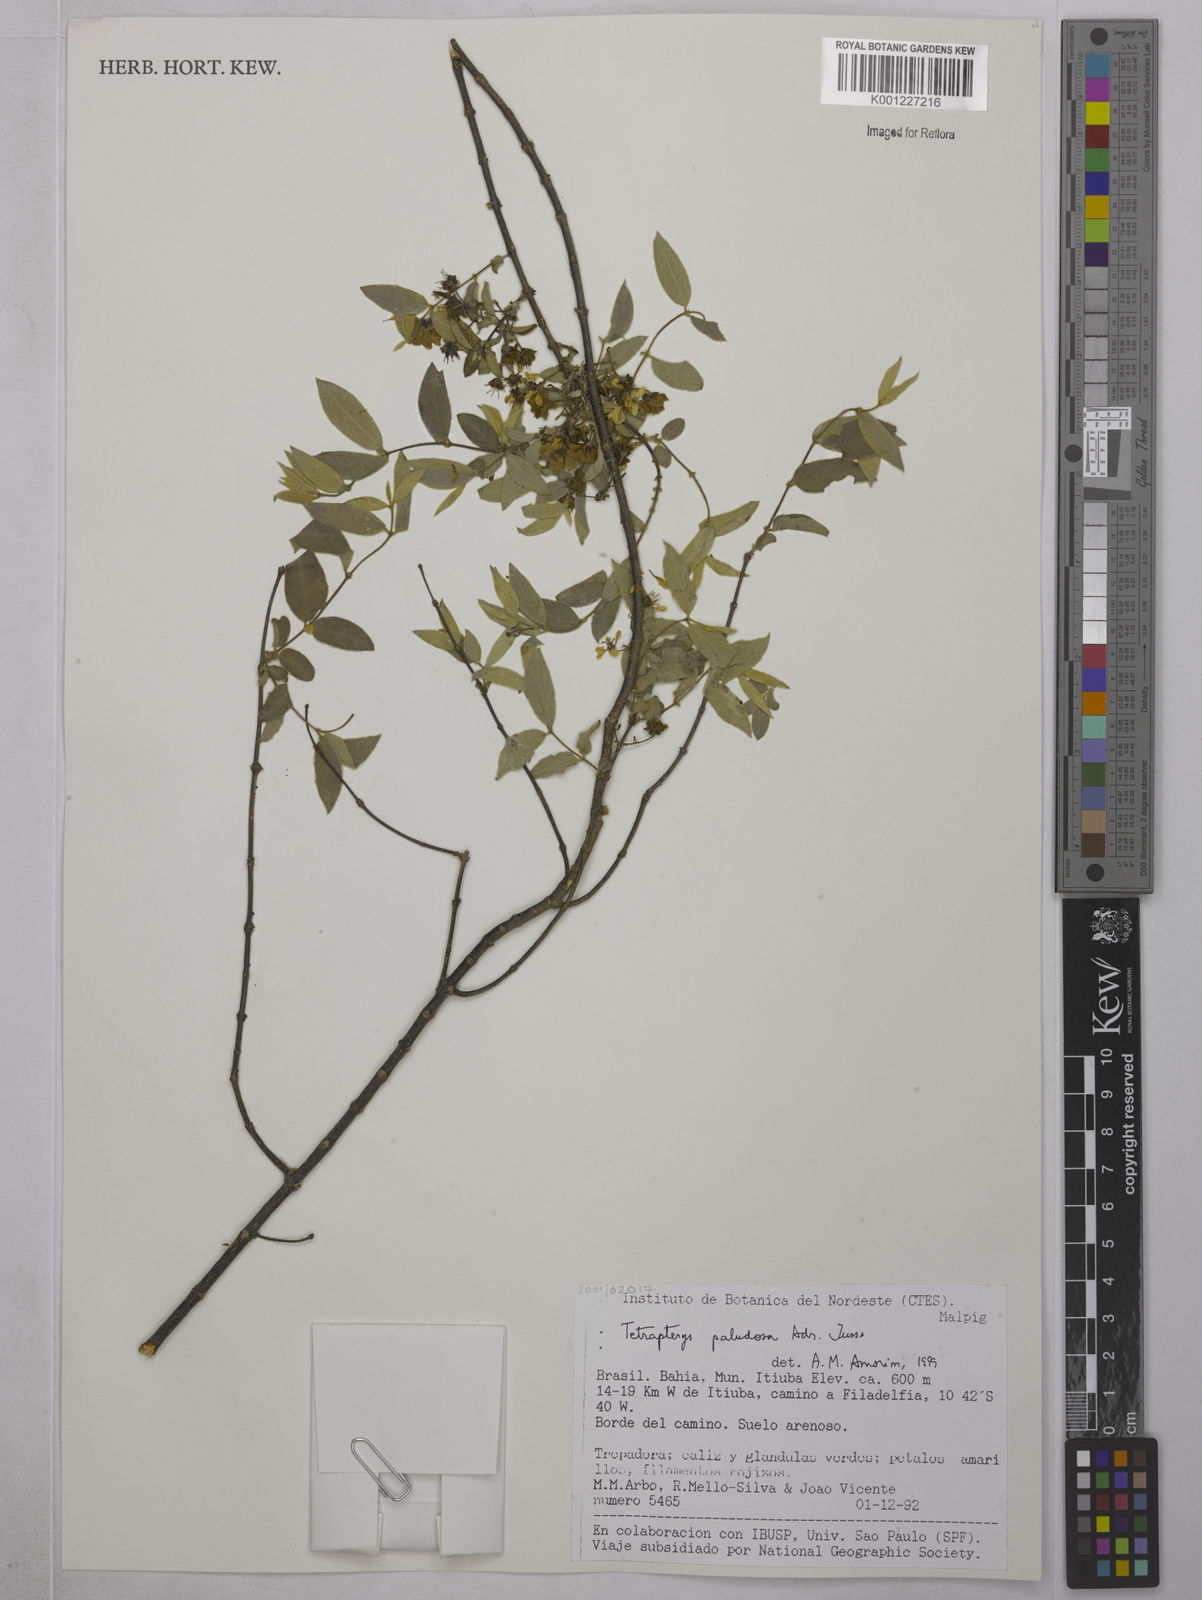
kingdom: Plantae
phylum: Tracheophyta
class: Magnoliopsida
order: Malpighiales
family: Malpighiaceae
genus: Glicophyllum
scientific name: Glicophyllum paludosum
